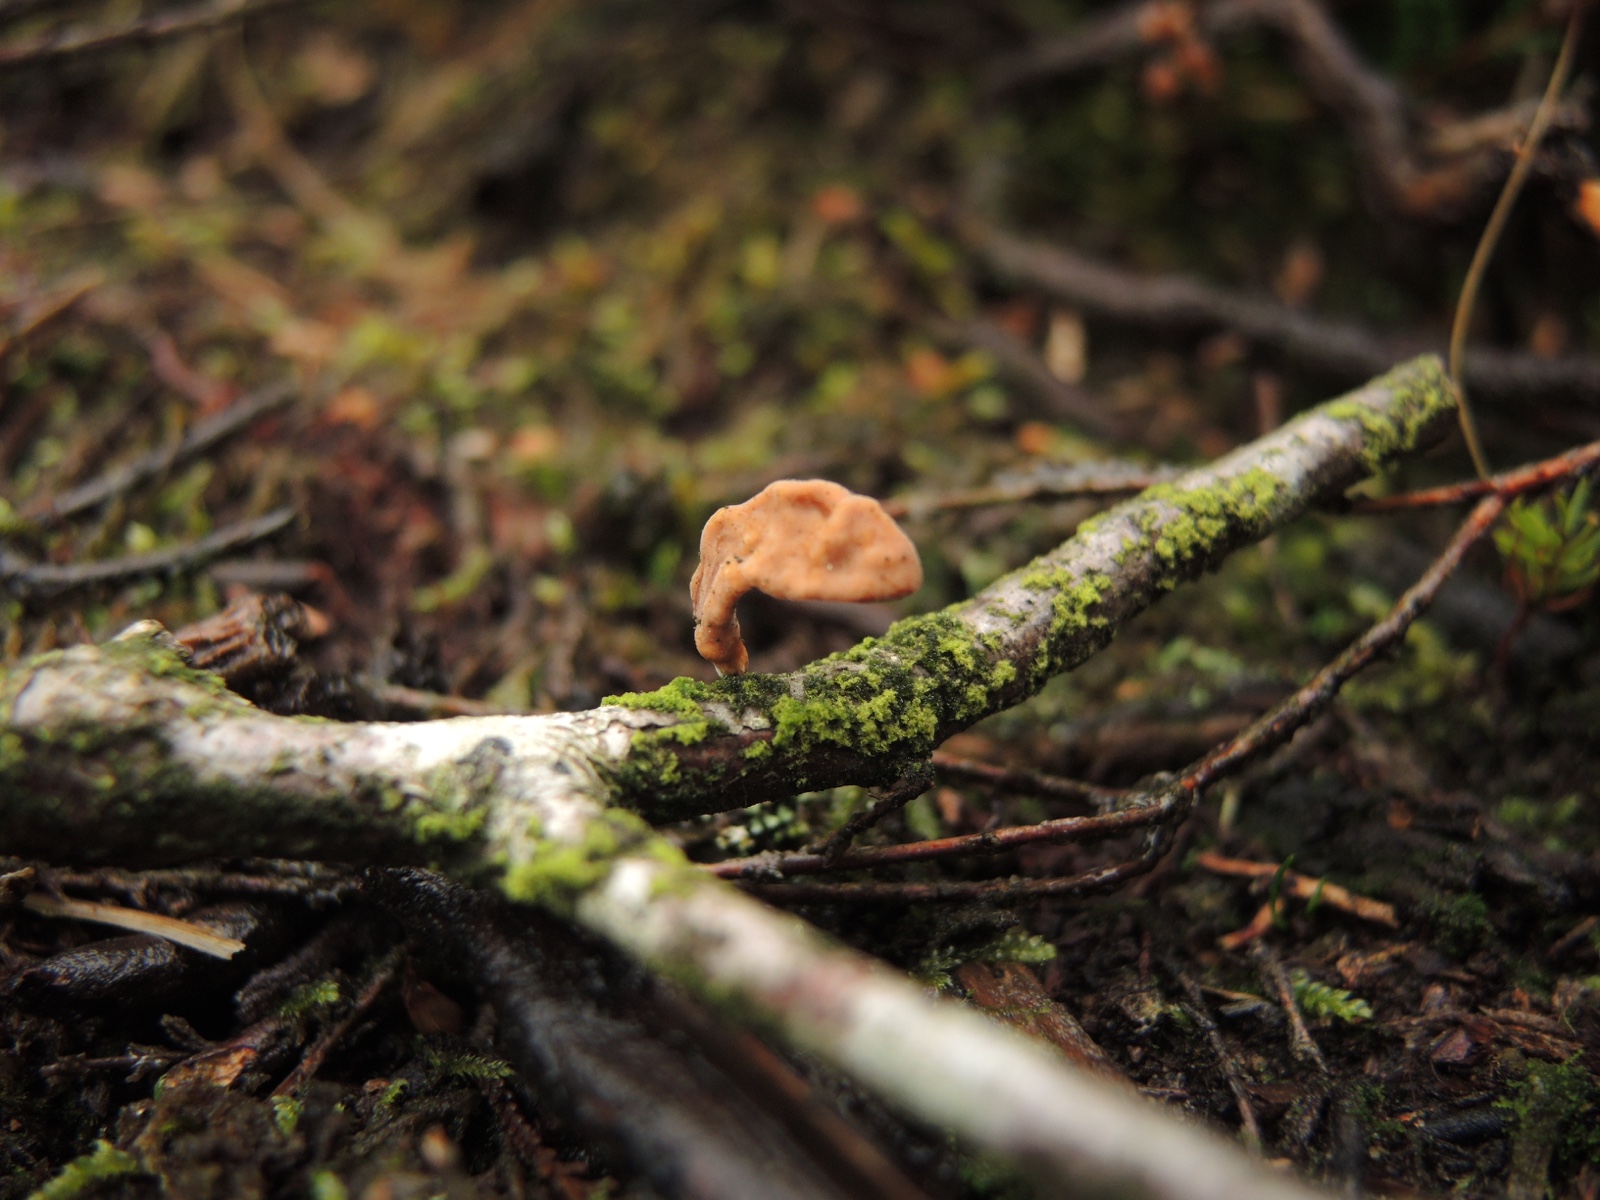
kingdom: Fungi
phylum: Basidiomycota
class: Agaricomycetes
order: Agaricales
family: Typhulaceae
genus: Typhula
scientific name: Typhula contorta
